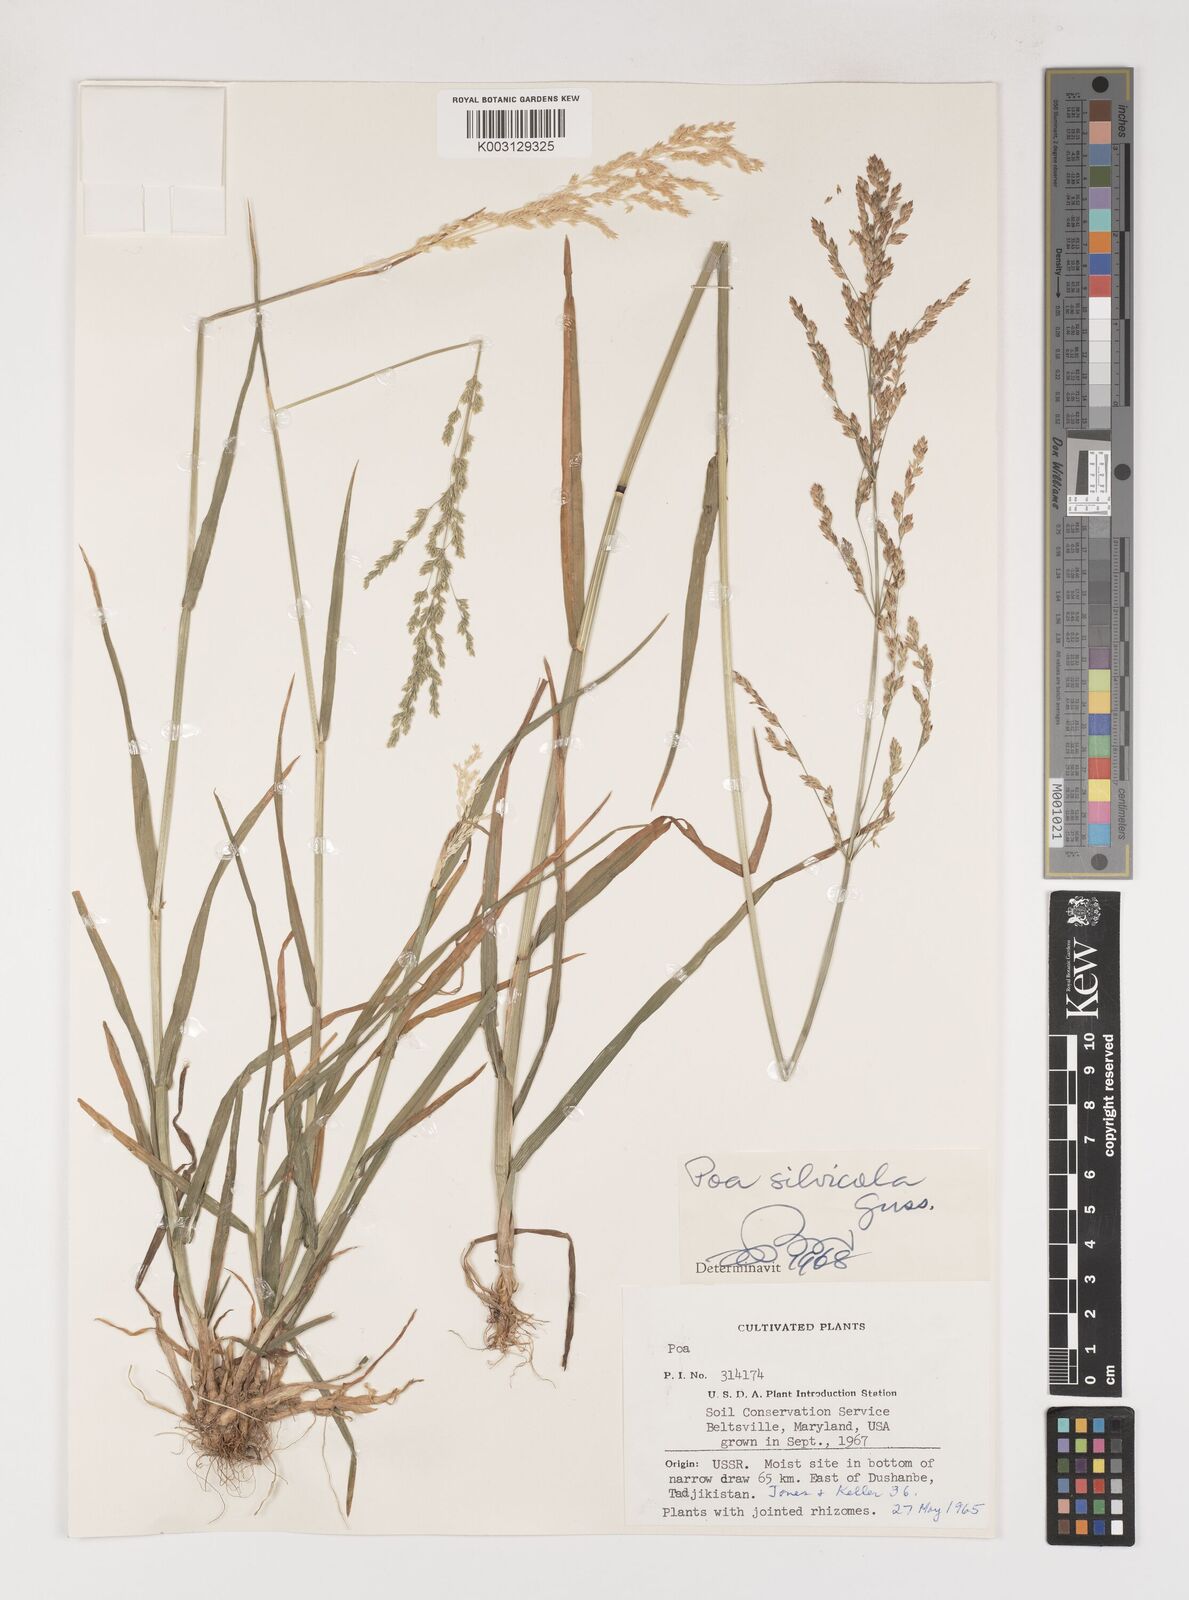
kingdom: Plantae
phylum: Tracheophyta
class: Liliopsida
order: Poales
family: Poaceae
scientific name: Poaceae
